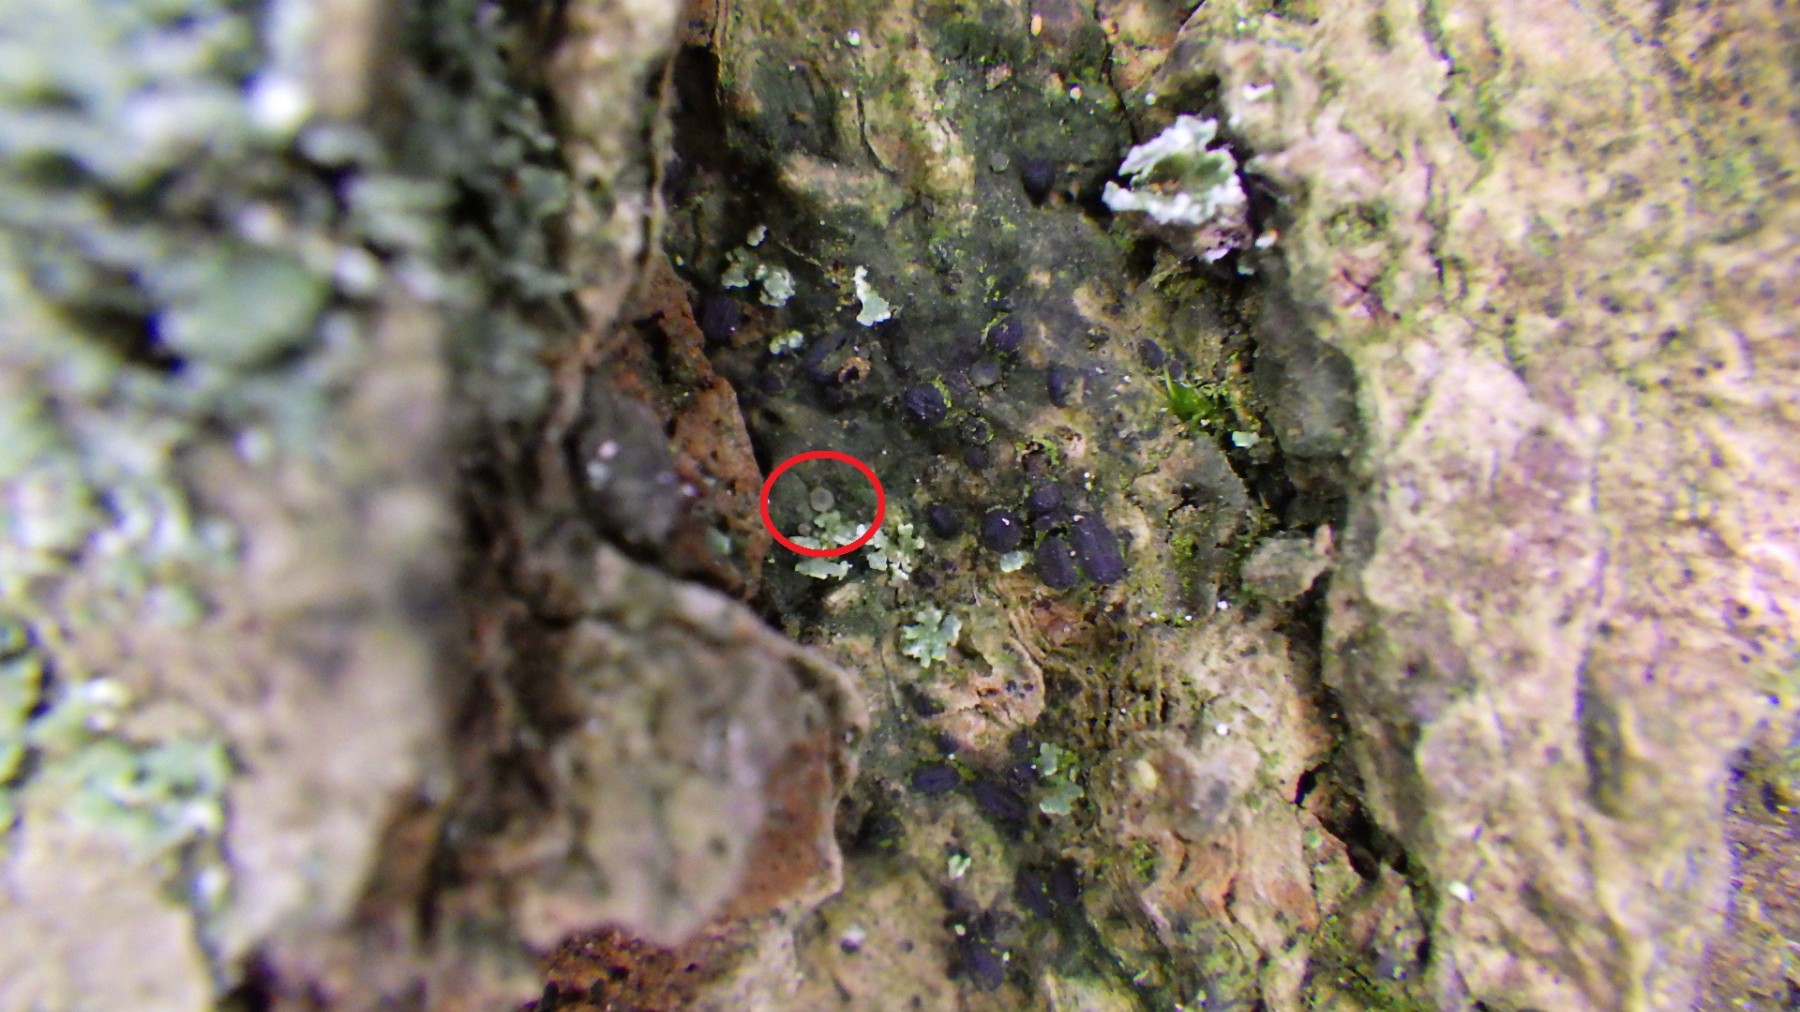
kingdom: Fungi
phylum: Ascomycota
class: Lecanoromycetes
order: Ostropales
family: Coenogoniaceae
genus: Coenogonium
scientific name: Coenogonium pineti
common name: liden vokslav
